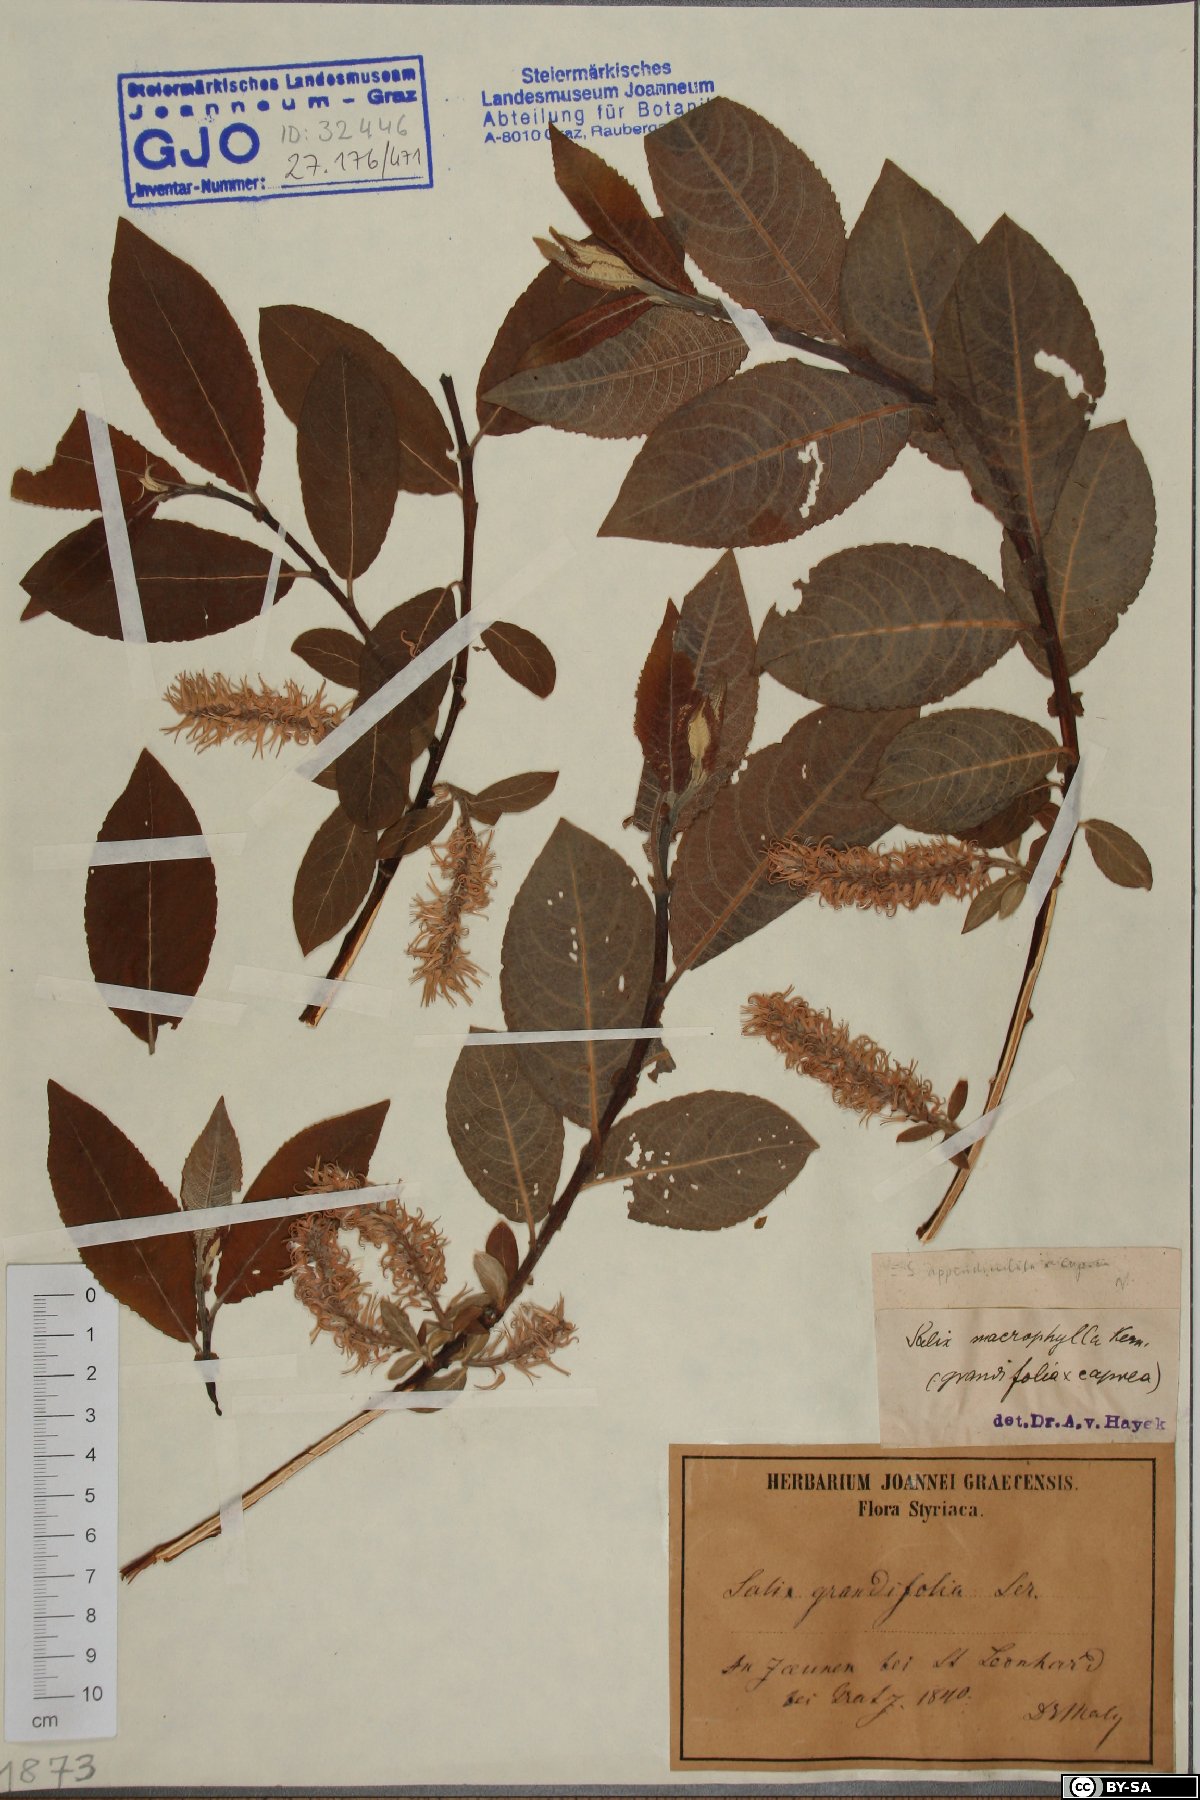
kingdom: Plantae
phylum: Tracheophyta
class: Magnoliopsida
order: Malpighiales
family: Salicaceae
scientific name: Salicaceae
